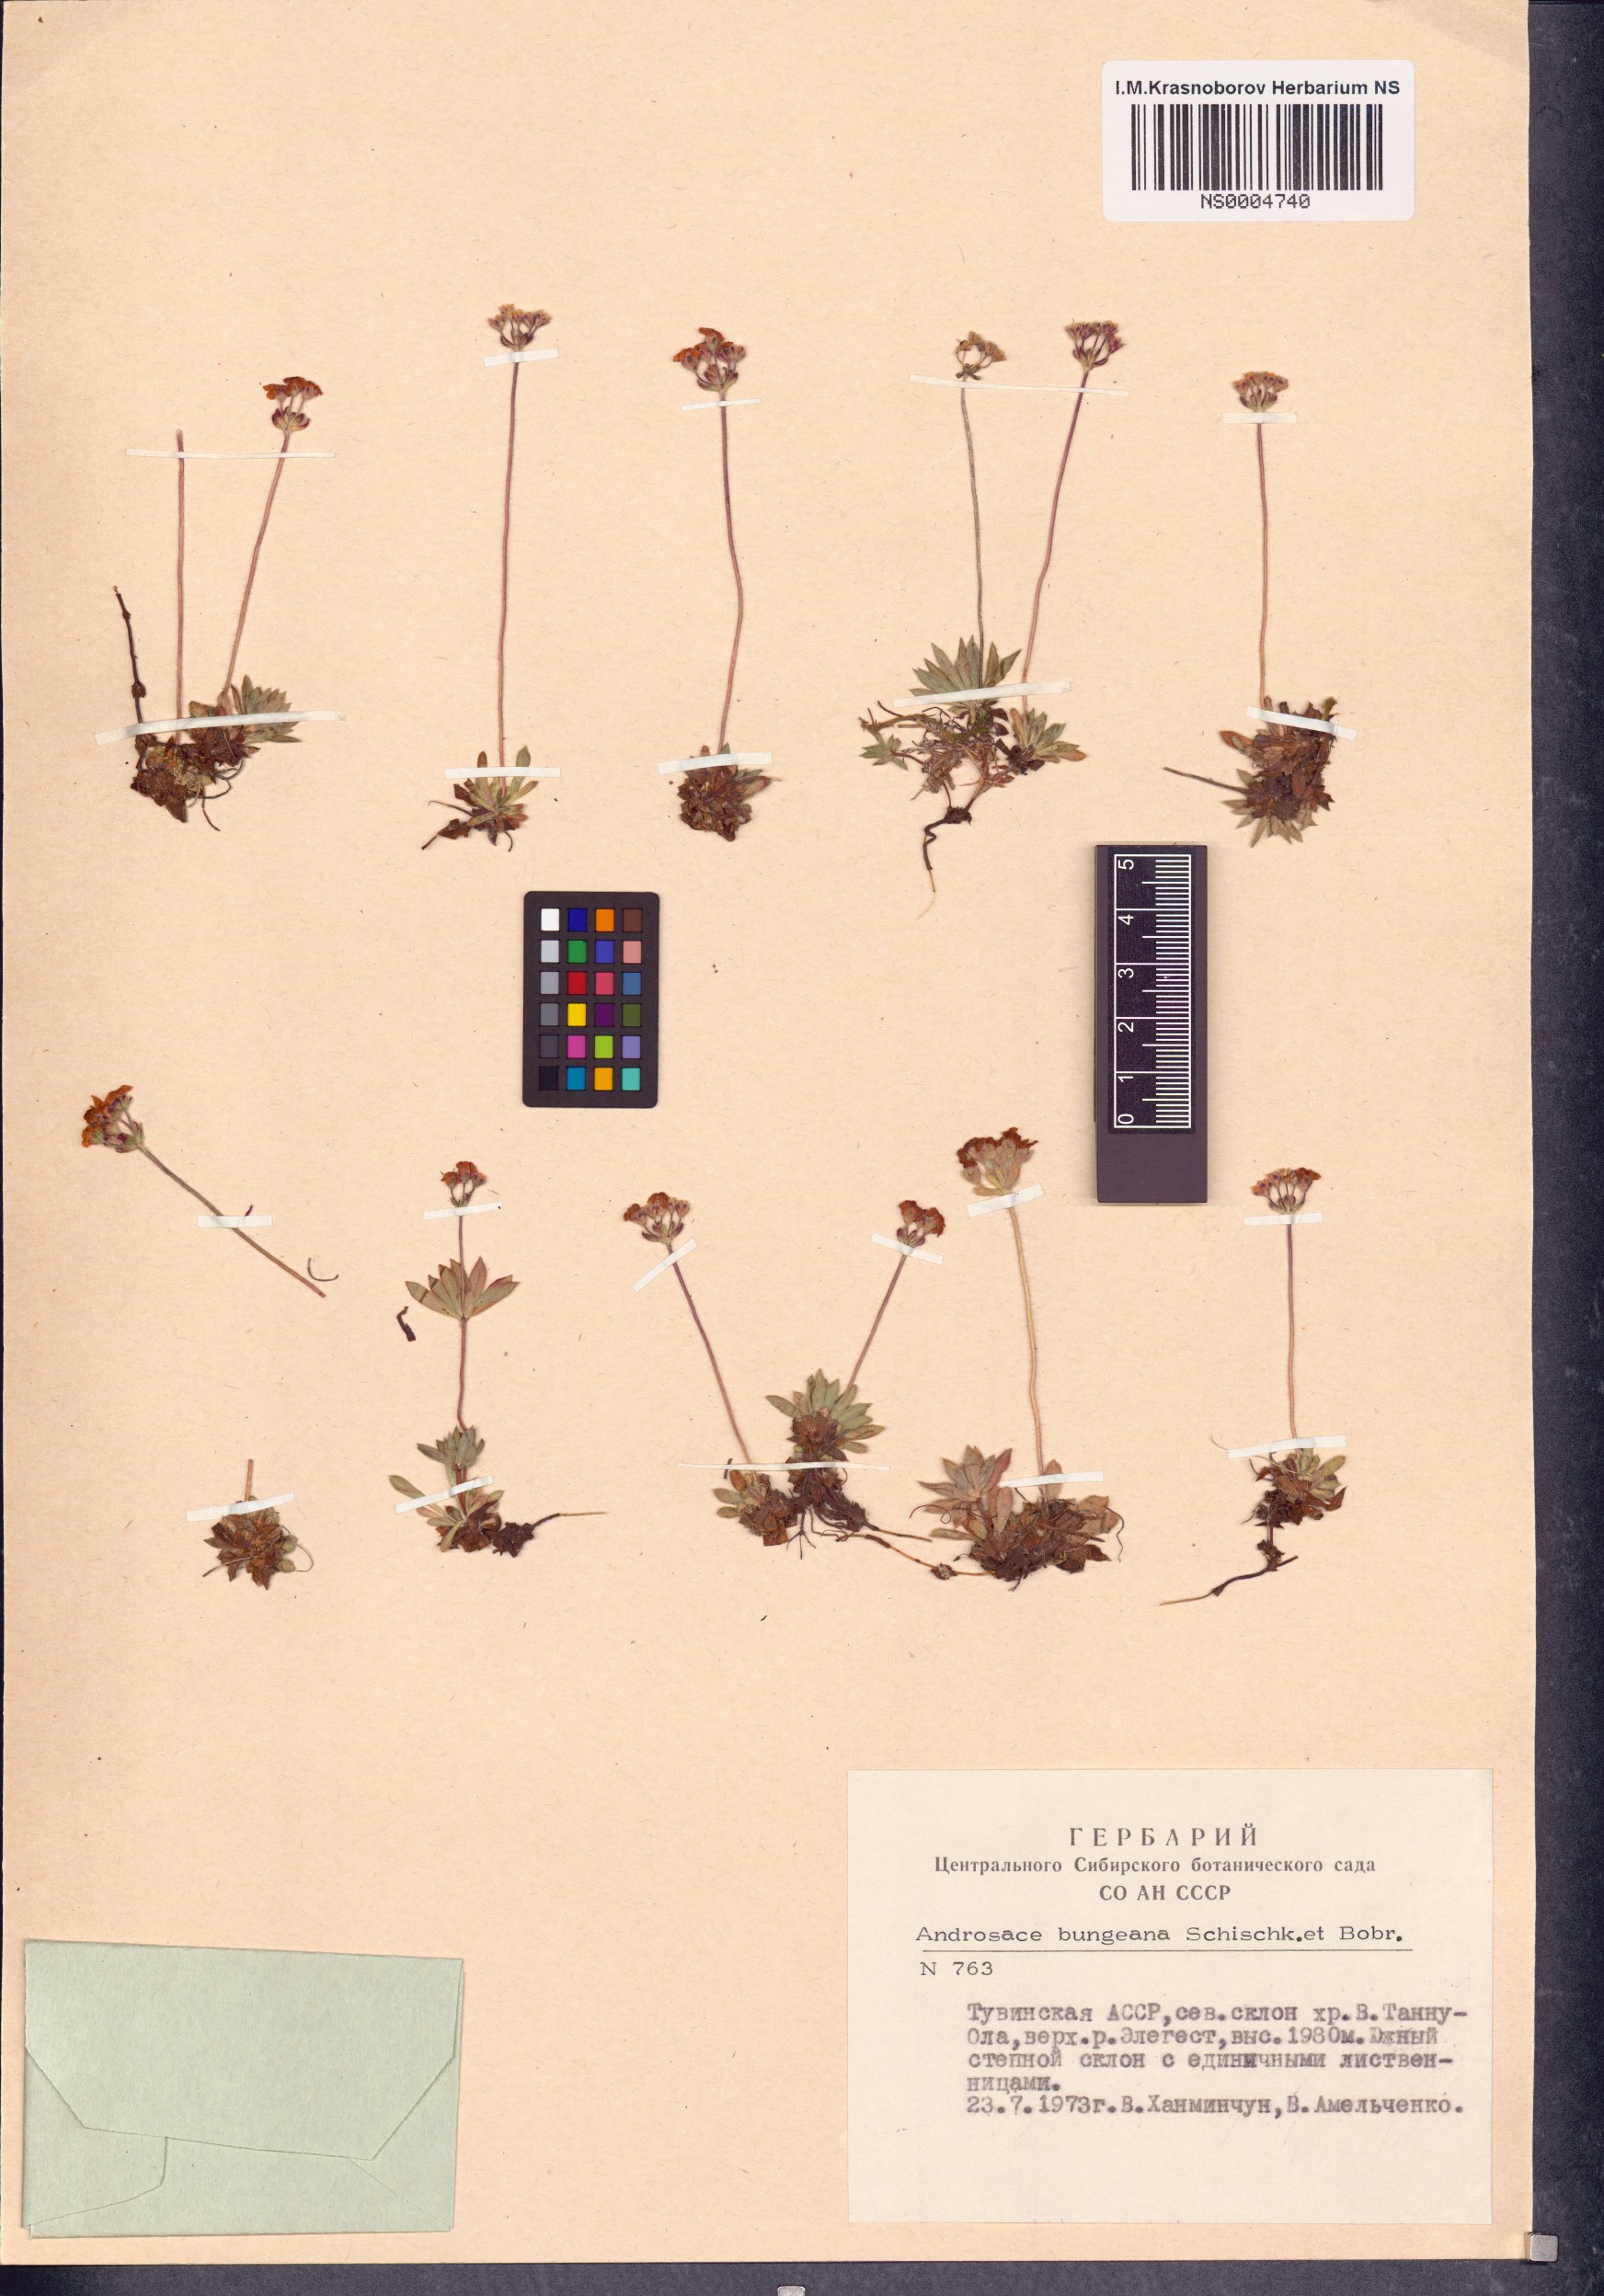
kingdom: Plantae
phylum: Tracheophyta
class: Magnoliopsida
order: Ericales
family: Primulaceae
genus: Androsace
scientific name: Androsace bungeana
